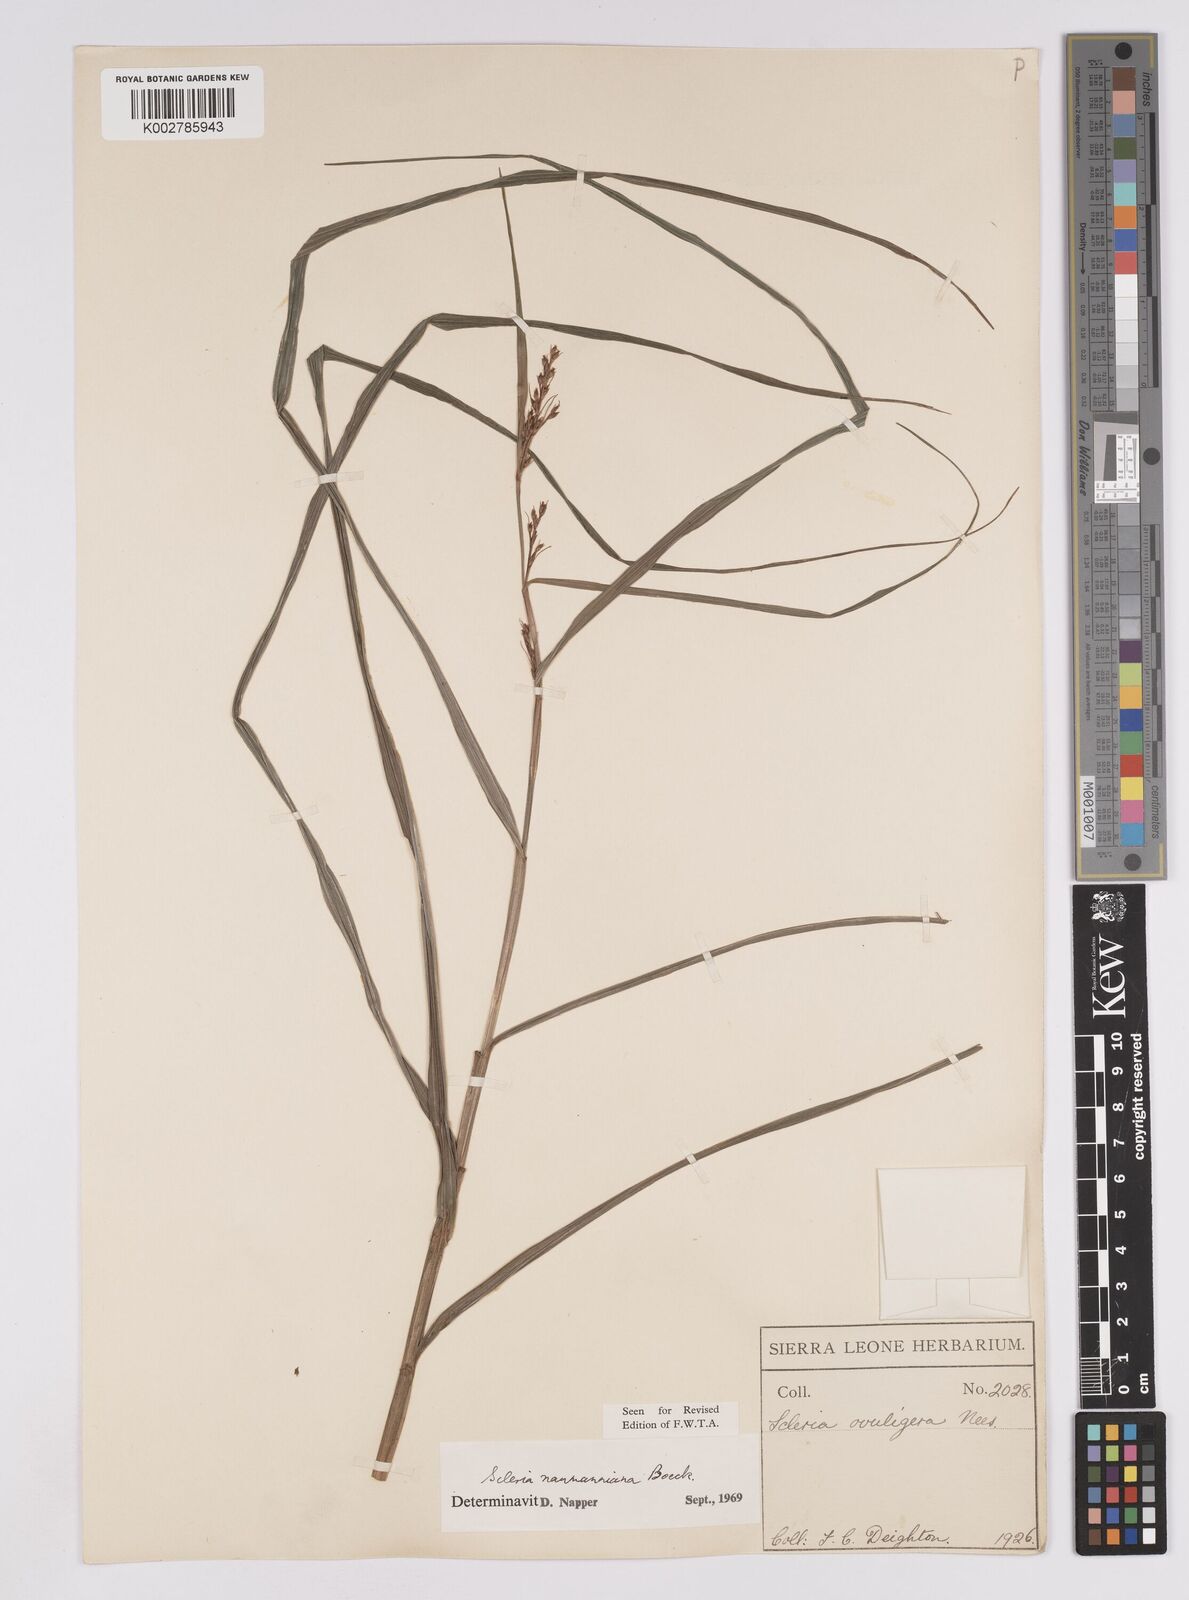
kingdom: Plantae
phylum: Tracheophyta
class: Liliopsida
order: Poales
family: Cyperaceae
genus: Scleria
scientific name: Scleria naumanniana
